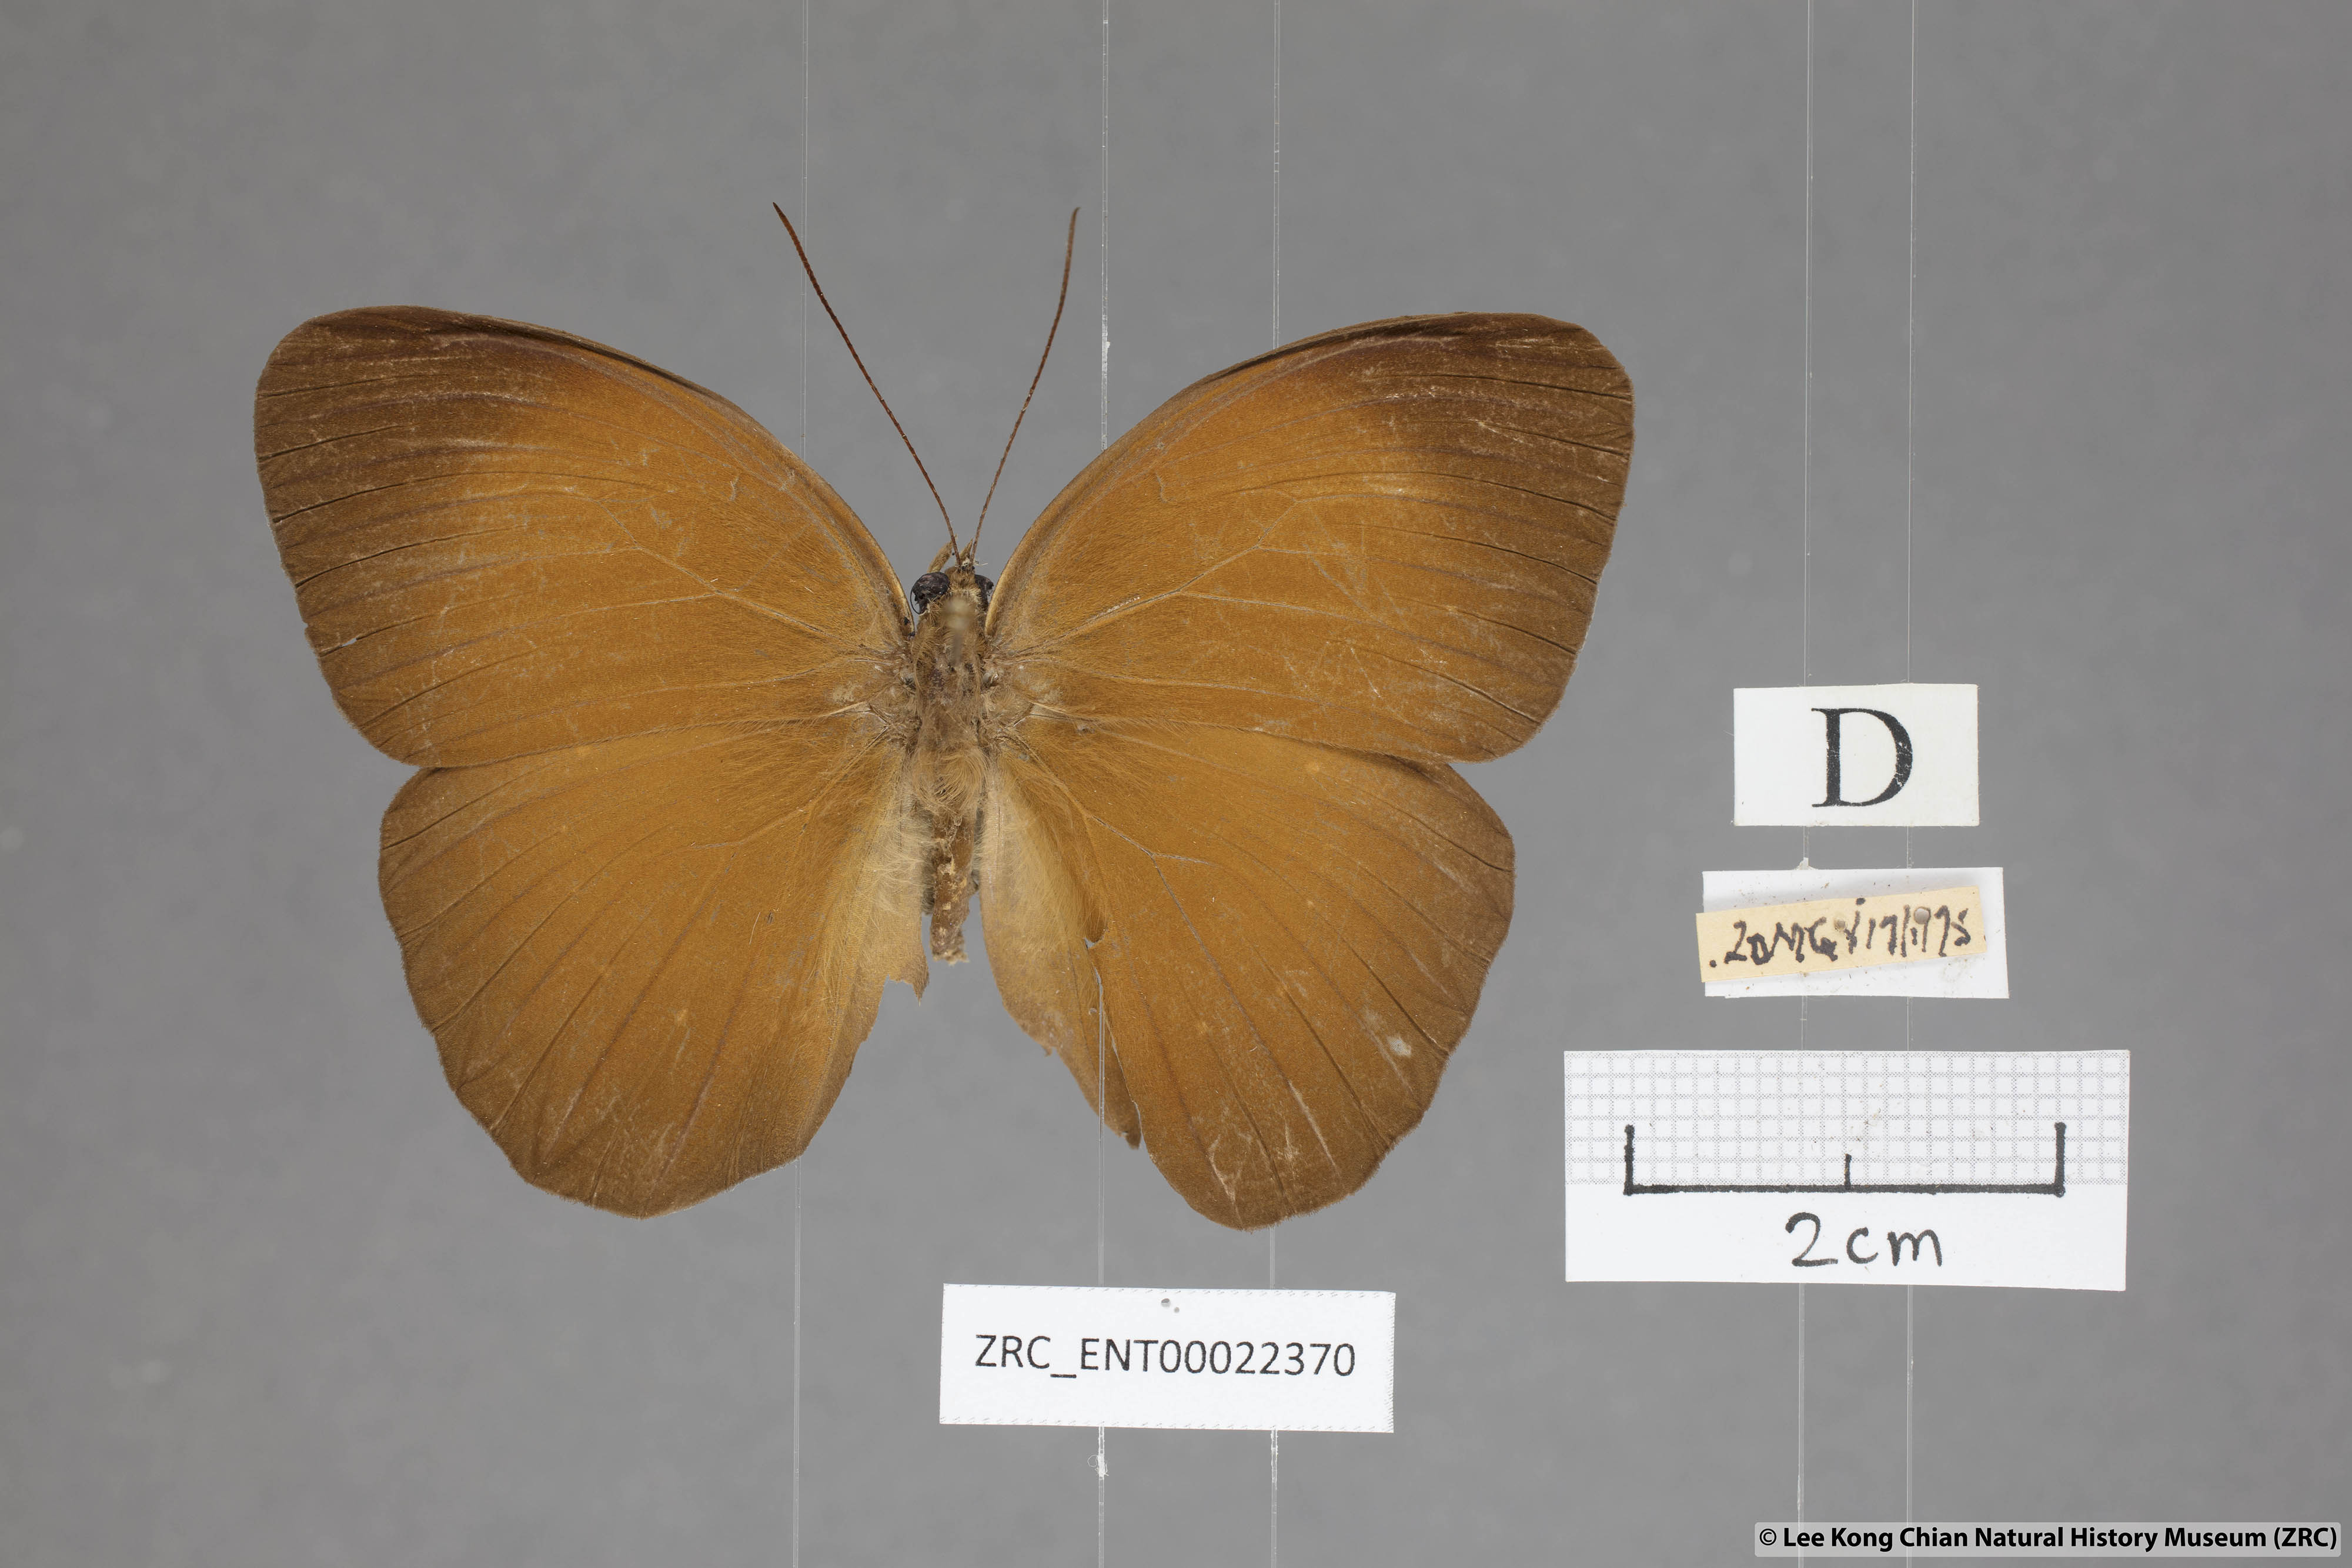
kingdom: Animalia
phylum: Arthropoda
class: Insecta
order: Lepidoptera
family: Nymphalidae
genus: Faunis
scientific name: Faunis canens
